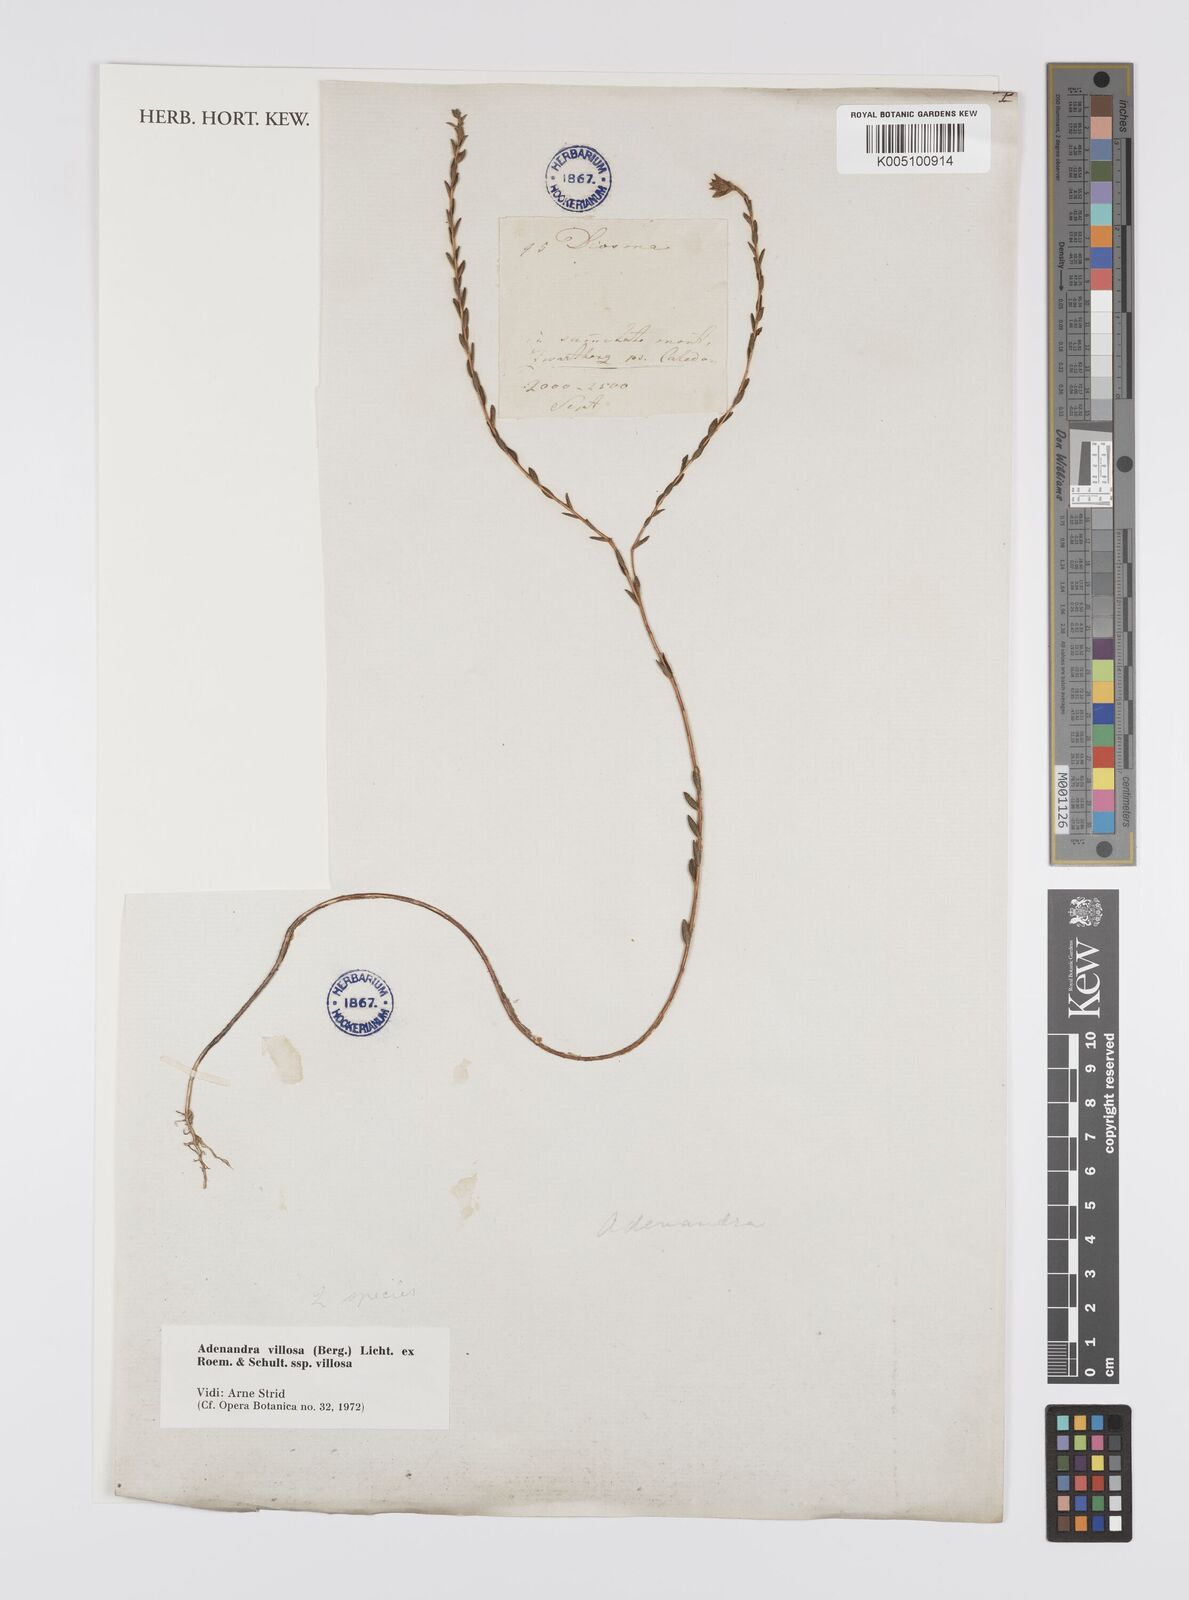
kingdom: Plantae
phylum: Tracheophyta
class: Magnoliopsida
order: Sapindales
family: Rutaceae
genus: Adenandra
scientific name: Adenandra villosa
